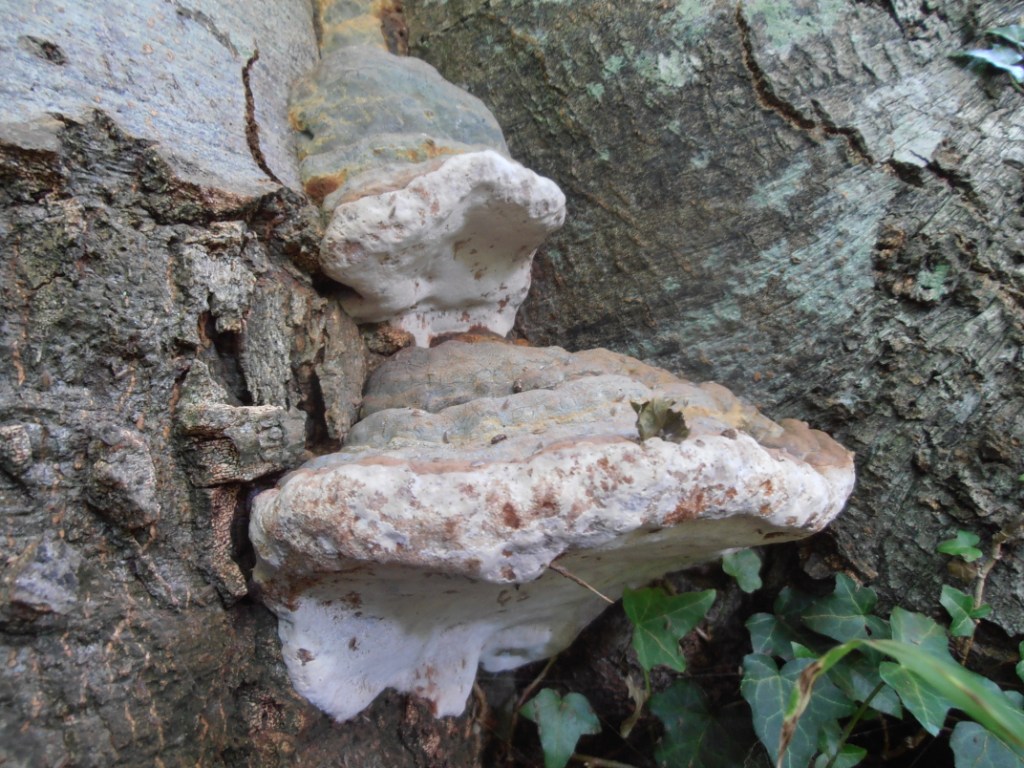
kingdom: Fungi
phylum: Basidiomycota
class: Agaricomycetes
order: Polyporales
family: Polyporaceae
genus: Ganoderma
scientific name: Ganoderma pfeifferi
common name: kobberrød lakporesvamp
